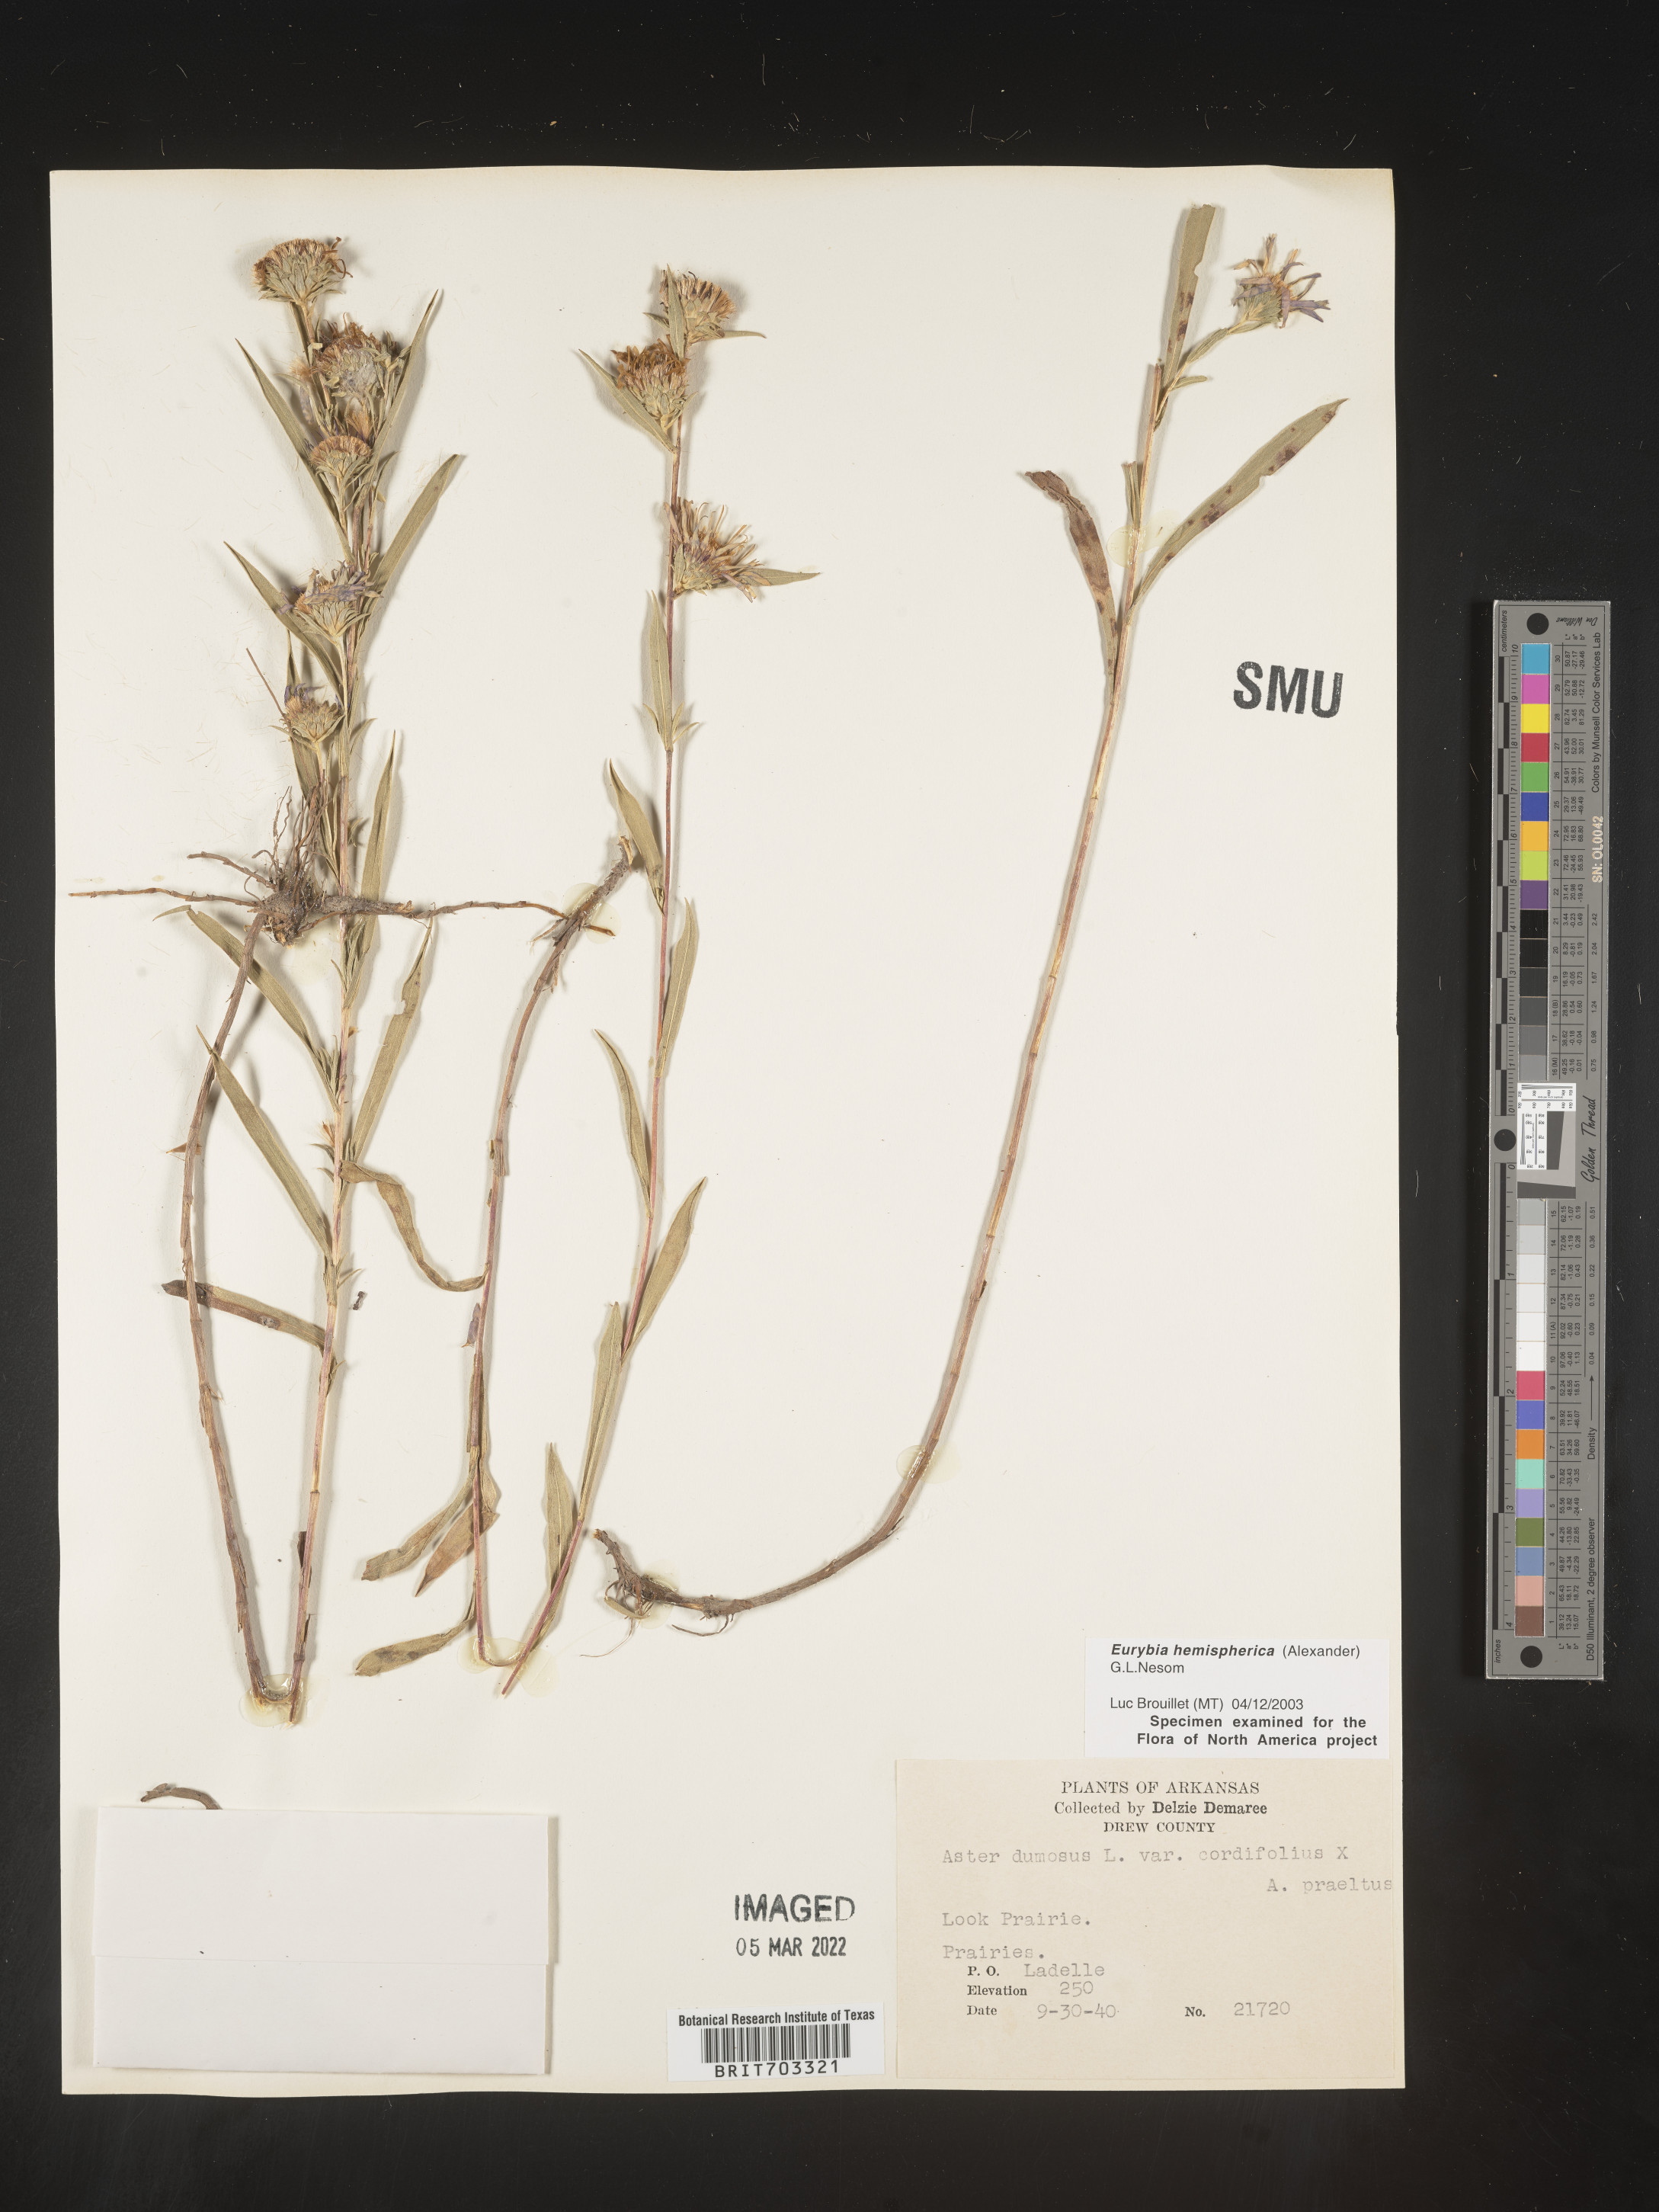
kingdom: Plantae
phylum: Tracheophyta
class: Magnoliopsida
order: Asterales
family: Asteraceae
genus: Eurybia
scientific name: Eurybia hemispherica
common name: Showy aster
